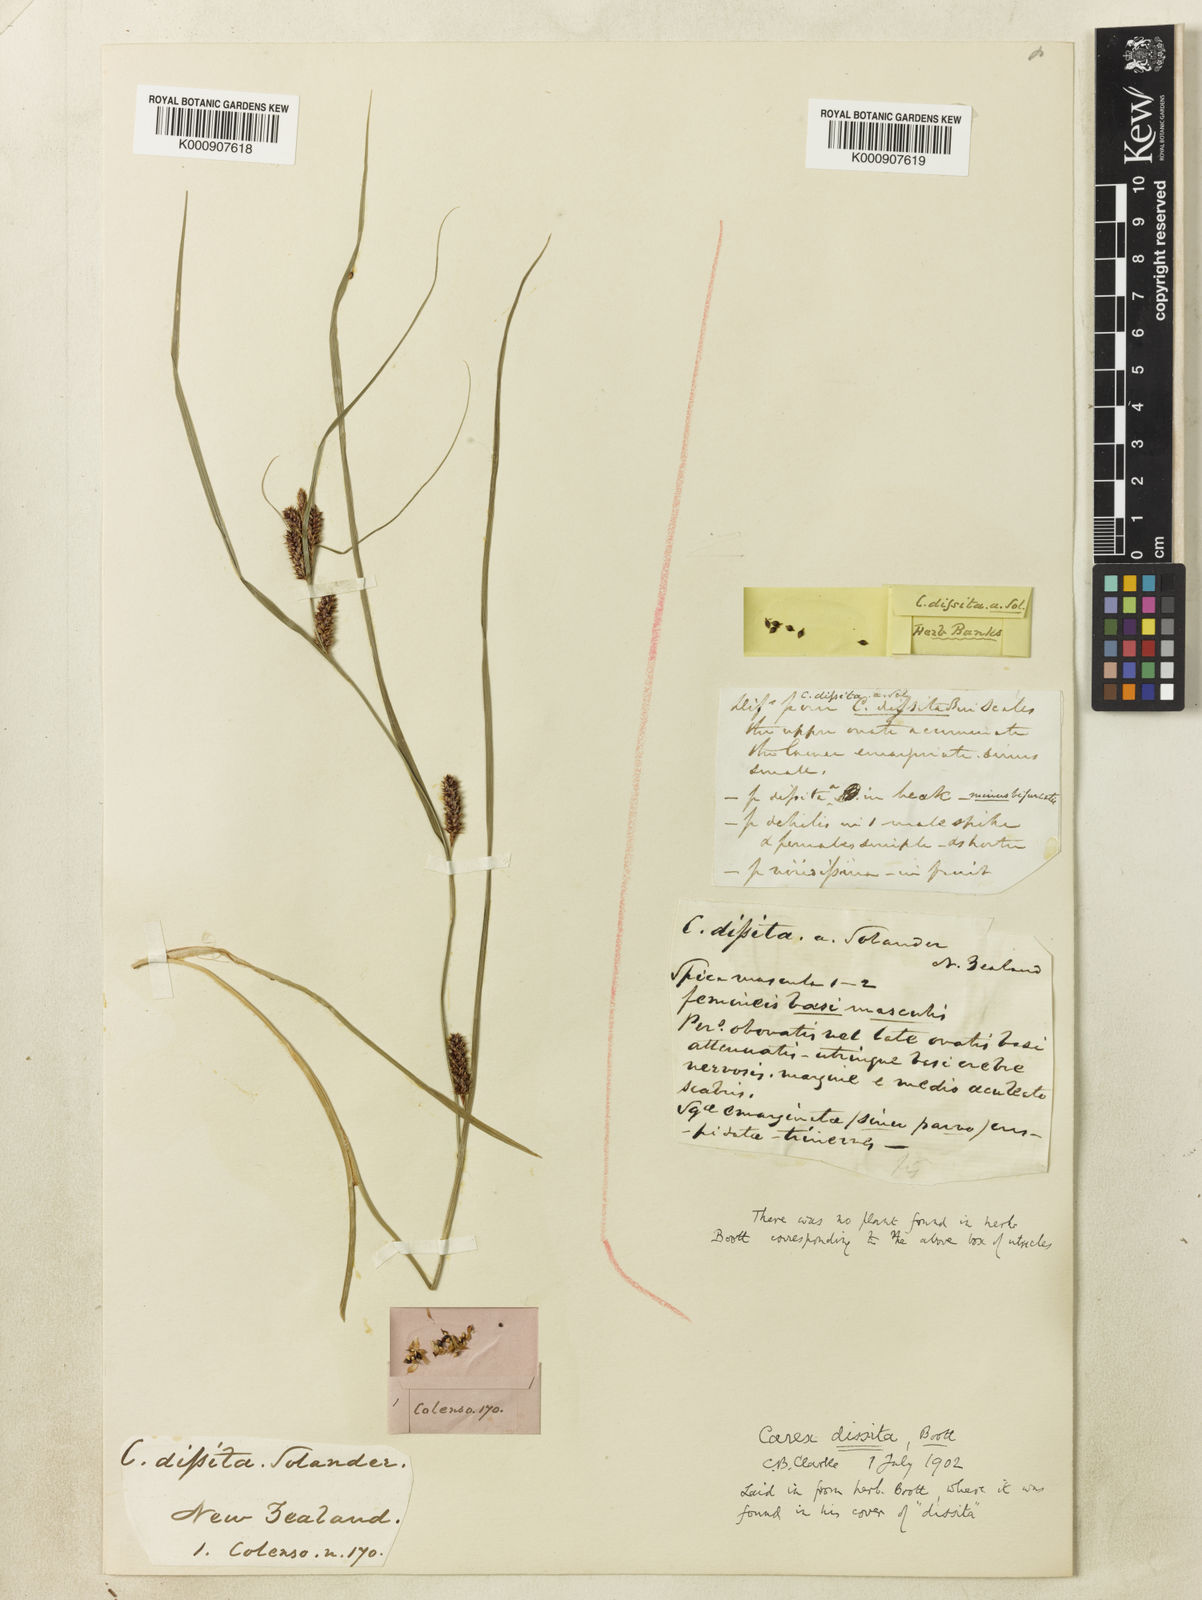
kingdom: Plantae
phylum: Tracheophyta
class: Liliopsida
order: Poales
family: Cyperaceae
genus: Carex
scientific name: Carex
